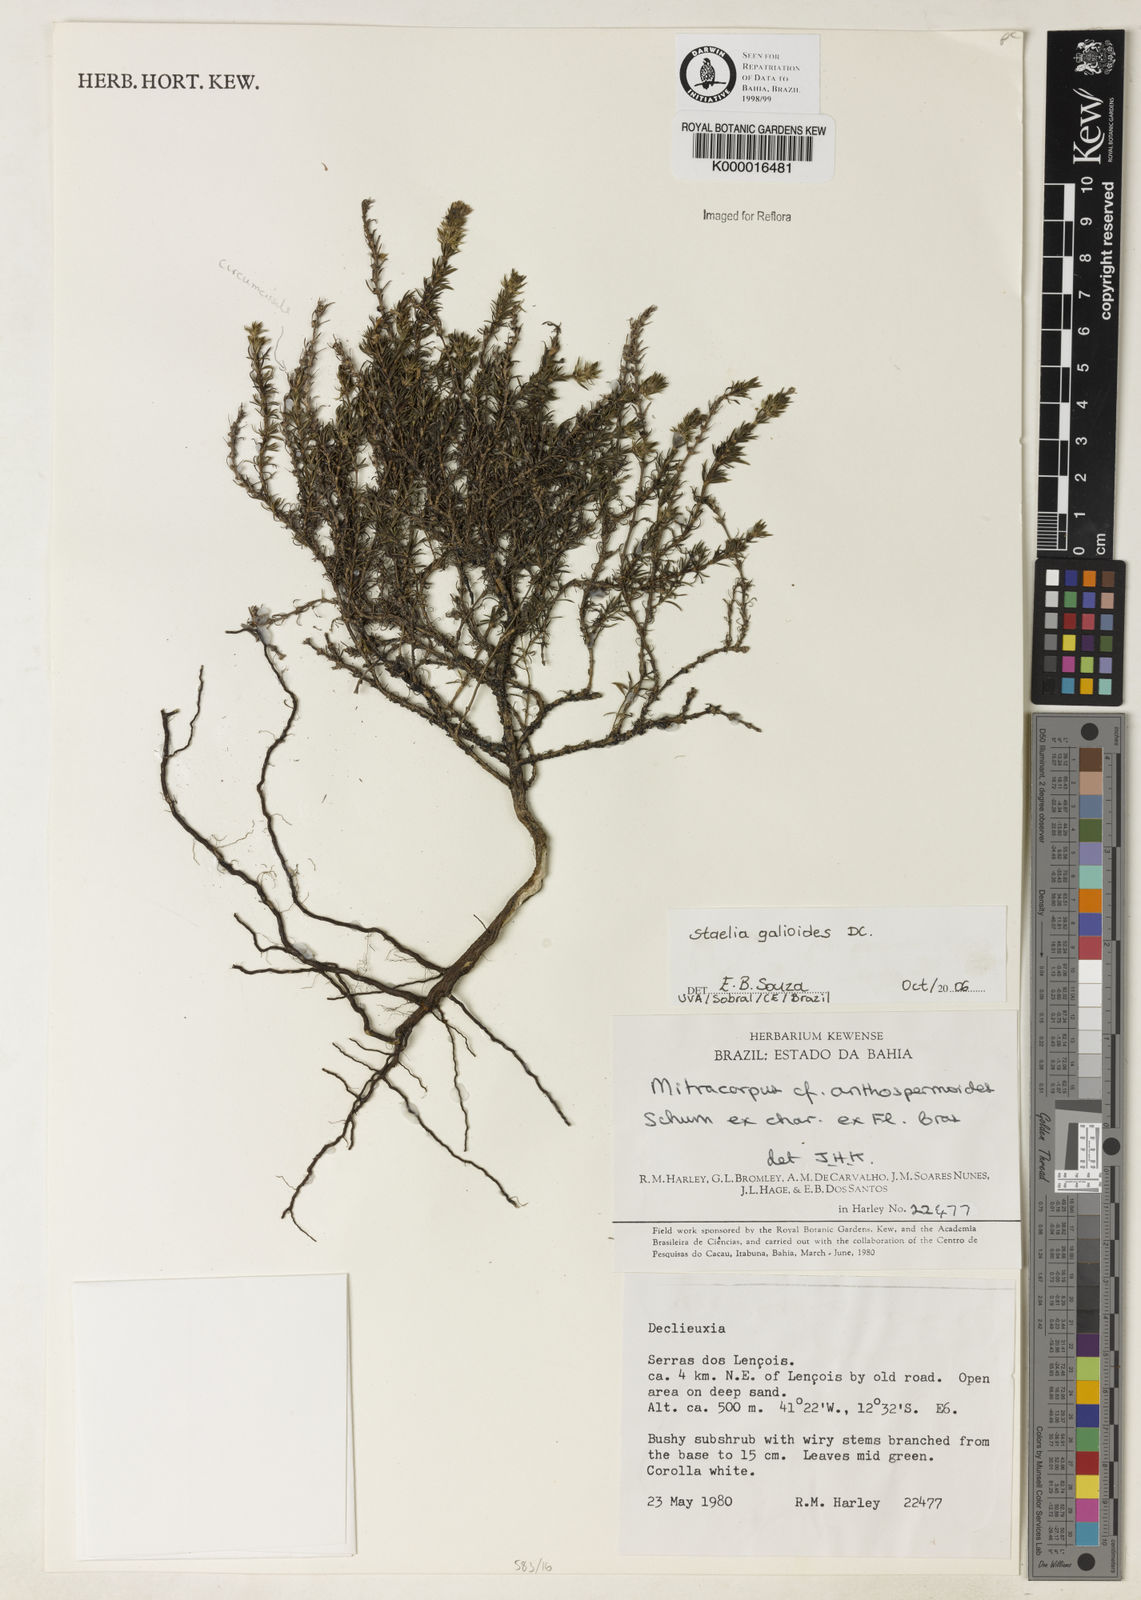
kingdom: Plantae
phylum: Tracheophyta
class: Magnoliopsida
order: Gentianales
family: Rubiaceae
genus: Mitracarpus
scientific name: Mitracarpus anthospermoides
